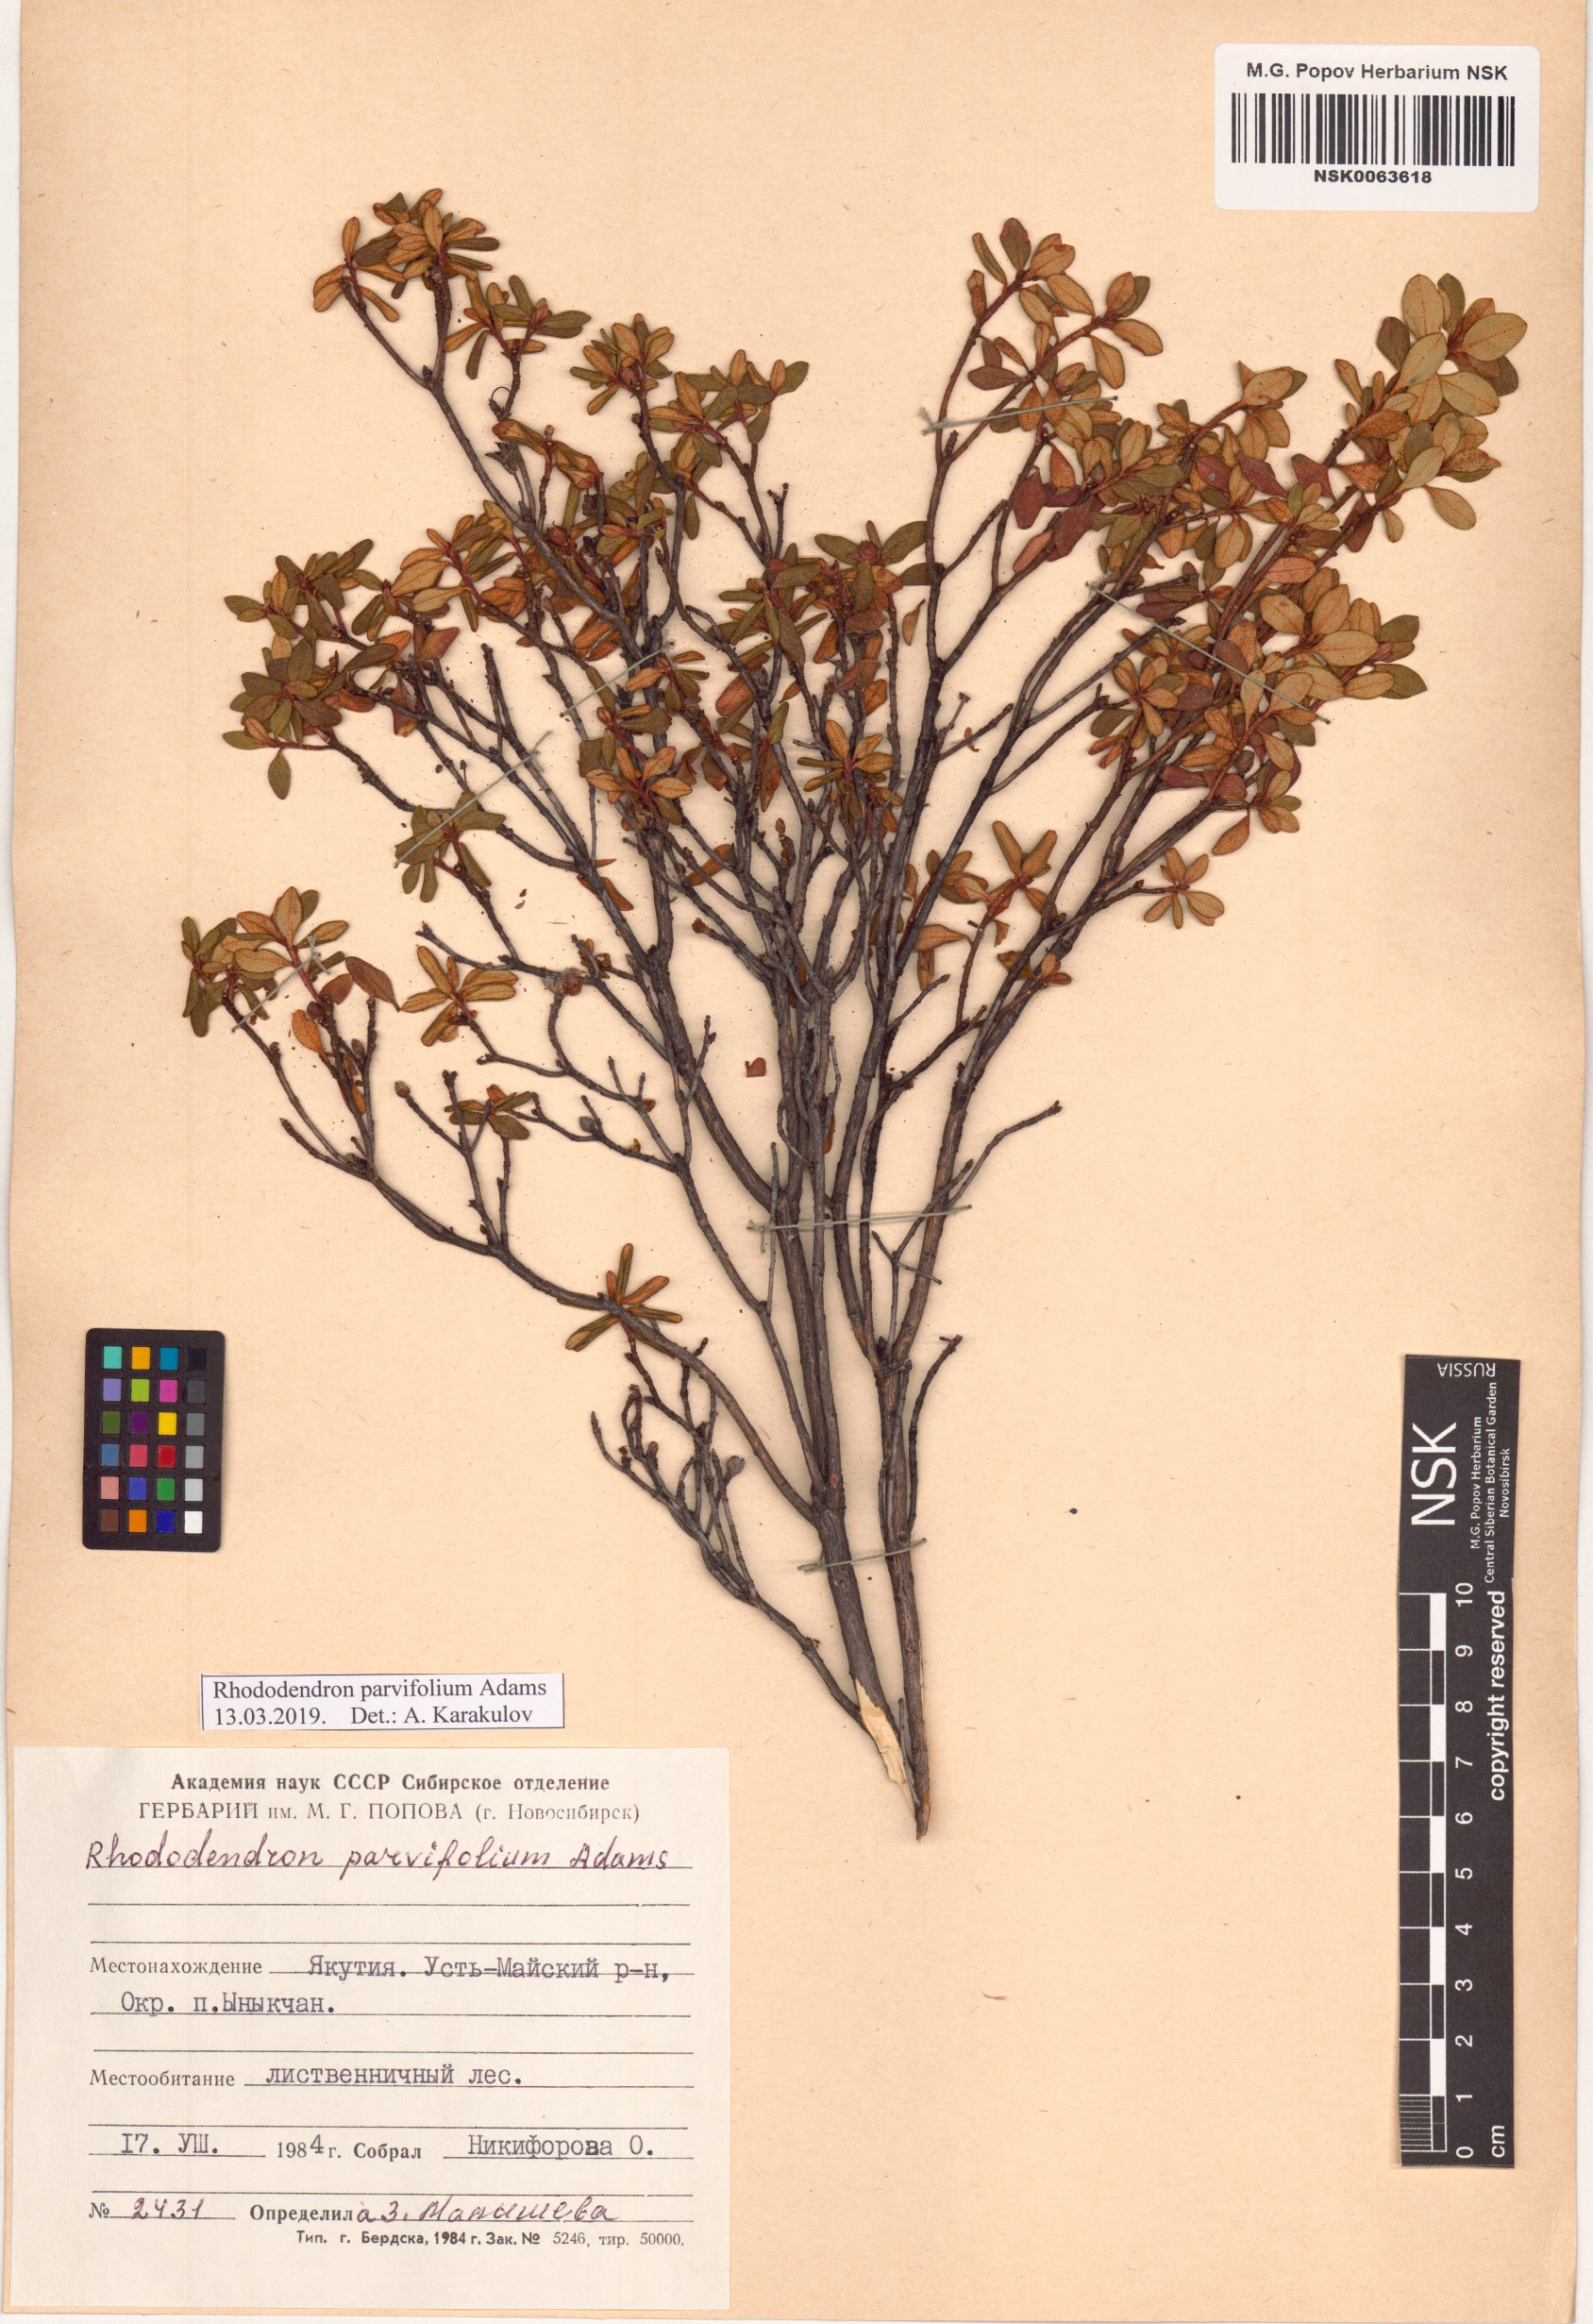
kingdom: Plantae
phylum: Tracheophyta
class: Magnoliopsida
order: Ericales
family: Ericaceae
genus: Rhododendron
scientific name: Rhododendron parvifolium
